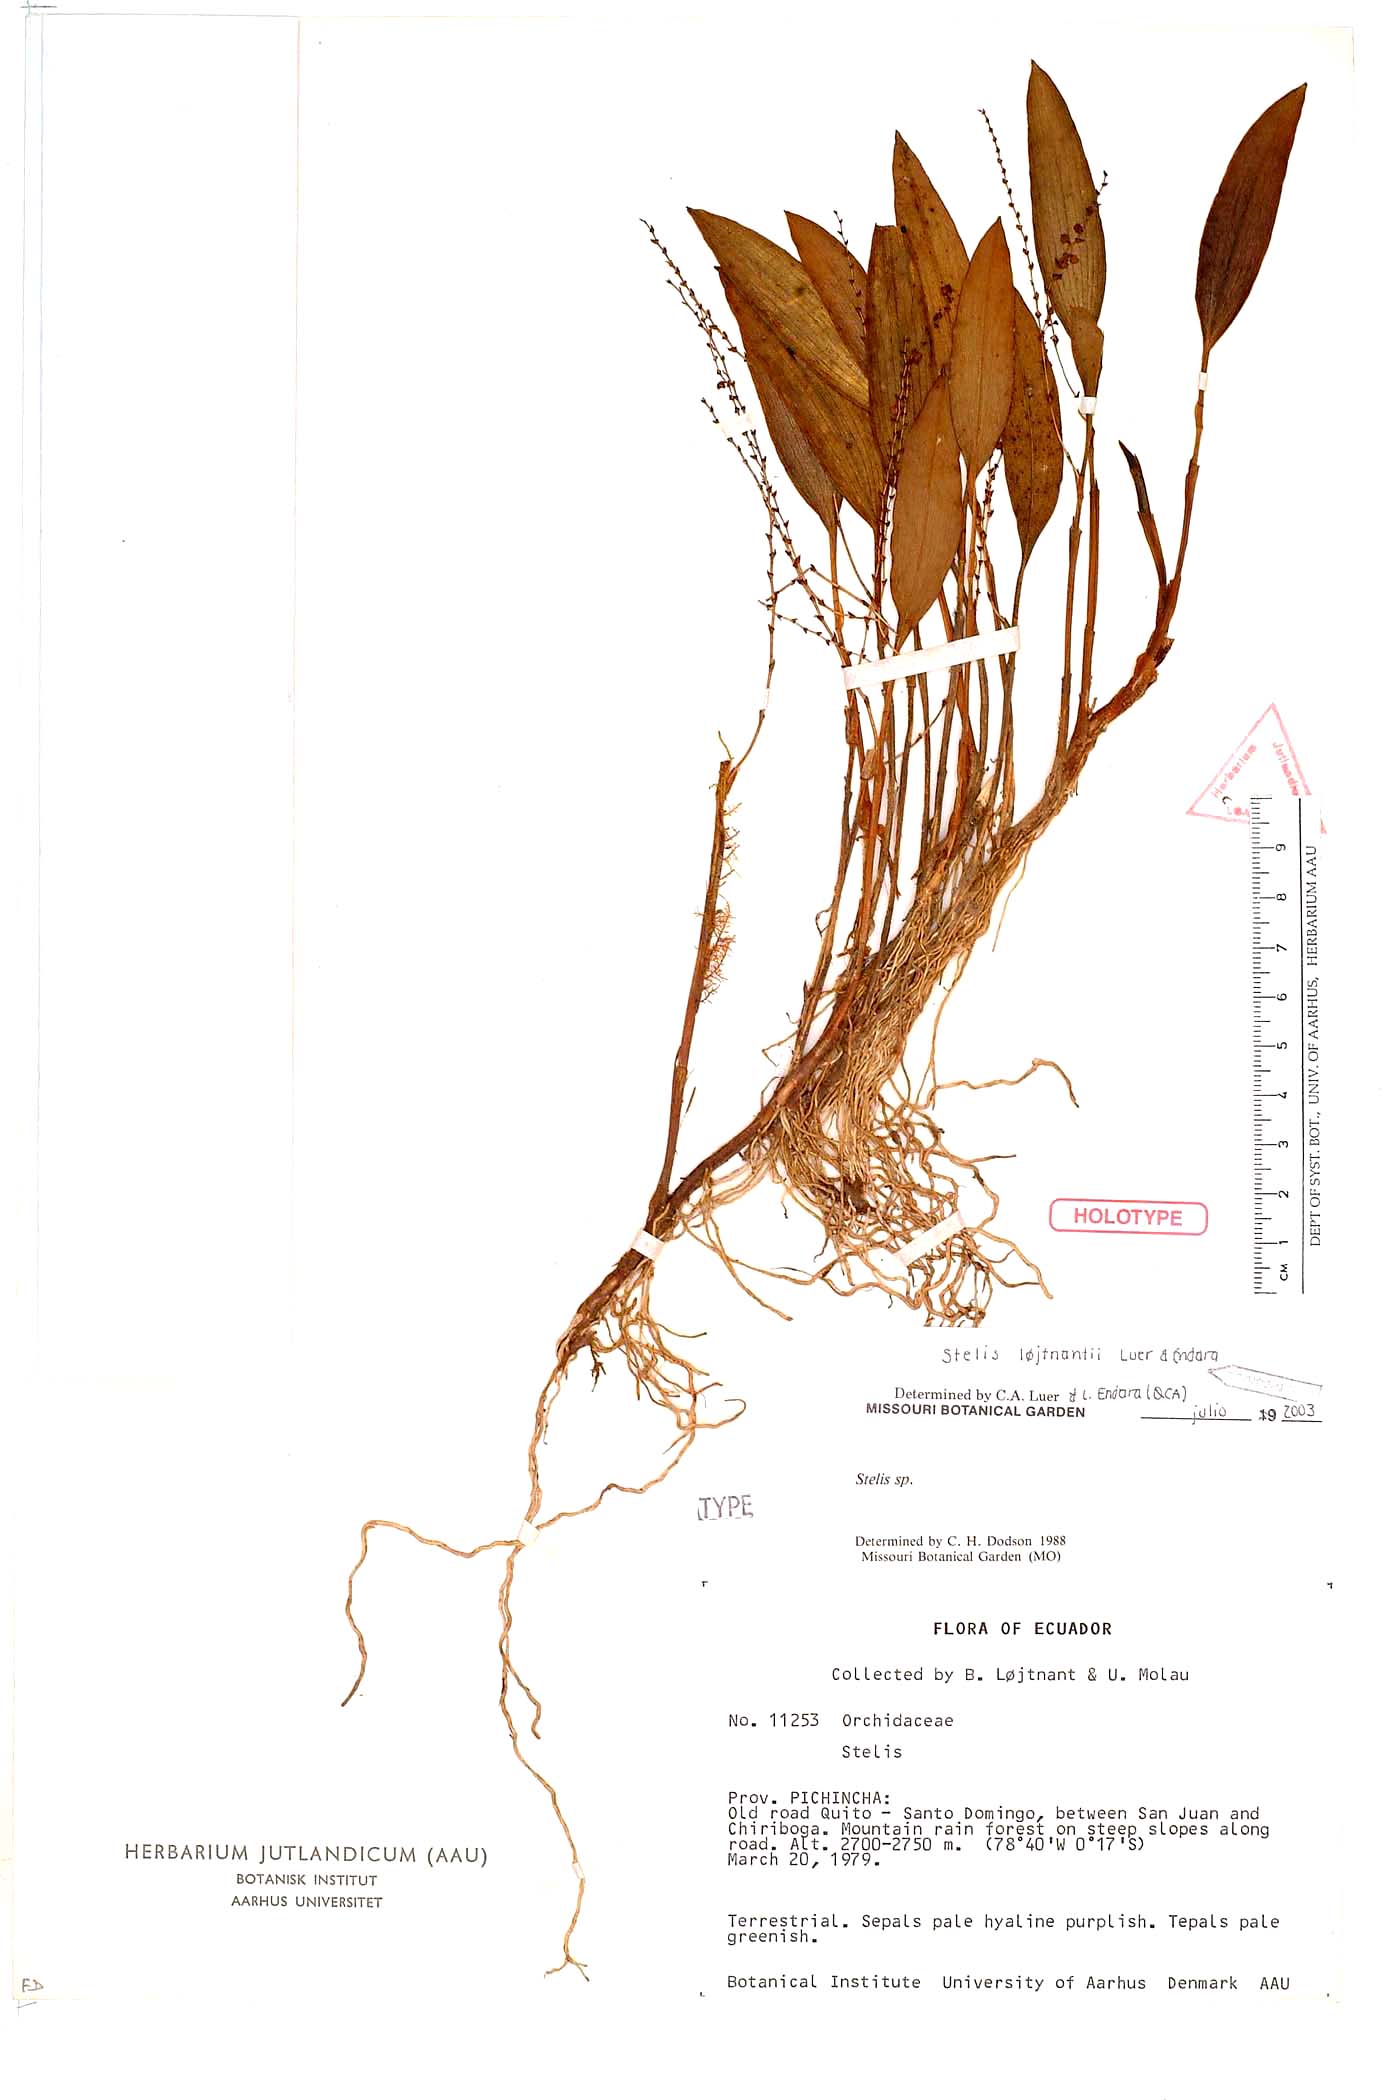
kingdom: Plantae
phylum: Tracheophyta
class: Liliopsida
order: Asparagales
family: Orchidaceae
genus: Stelis
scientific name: Stelis
